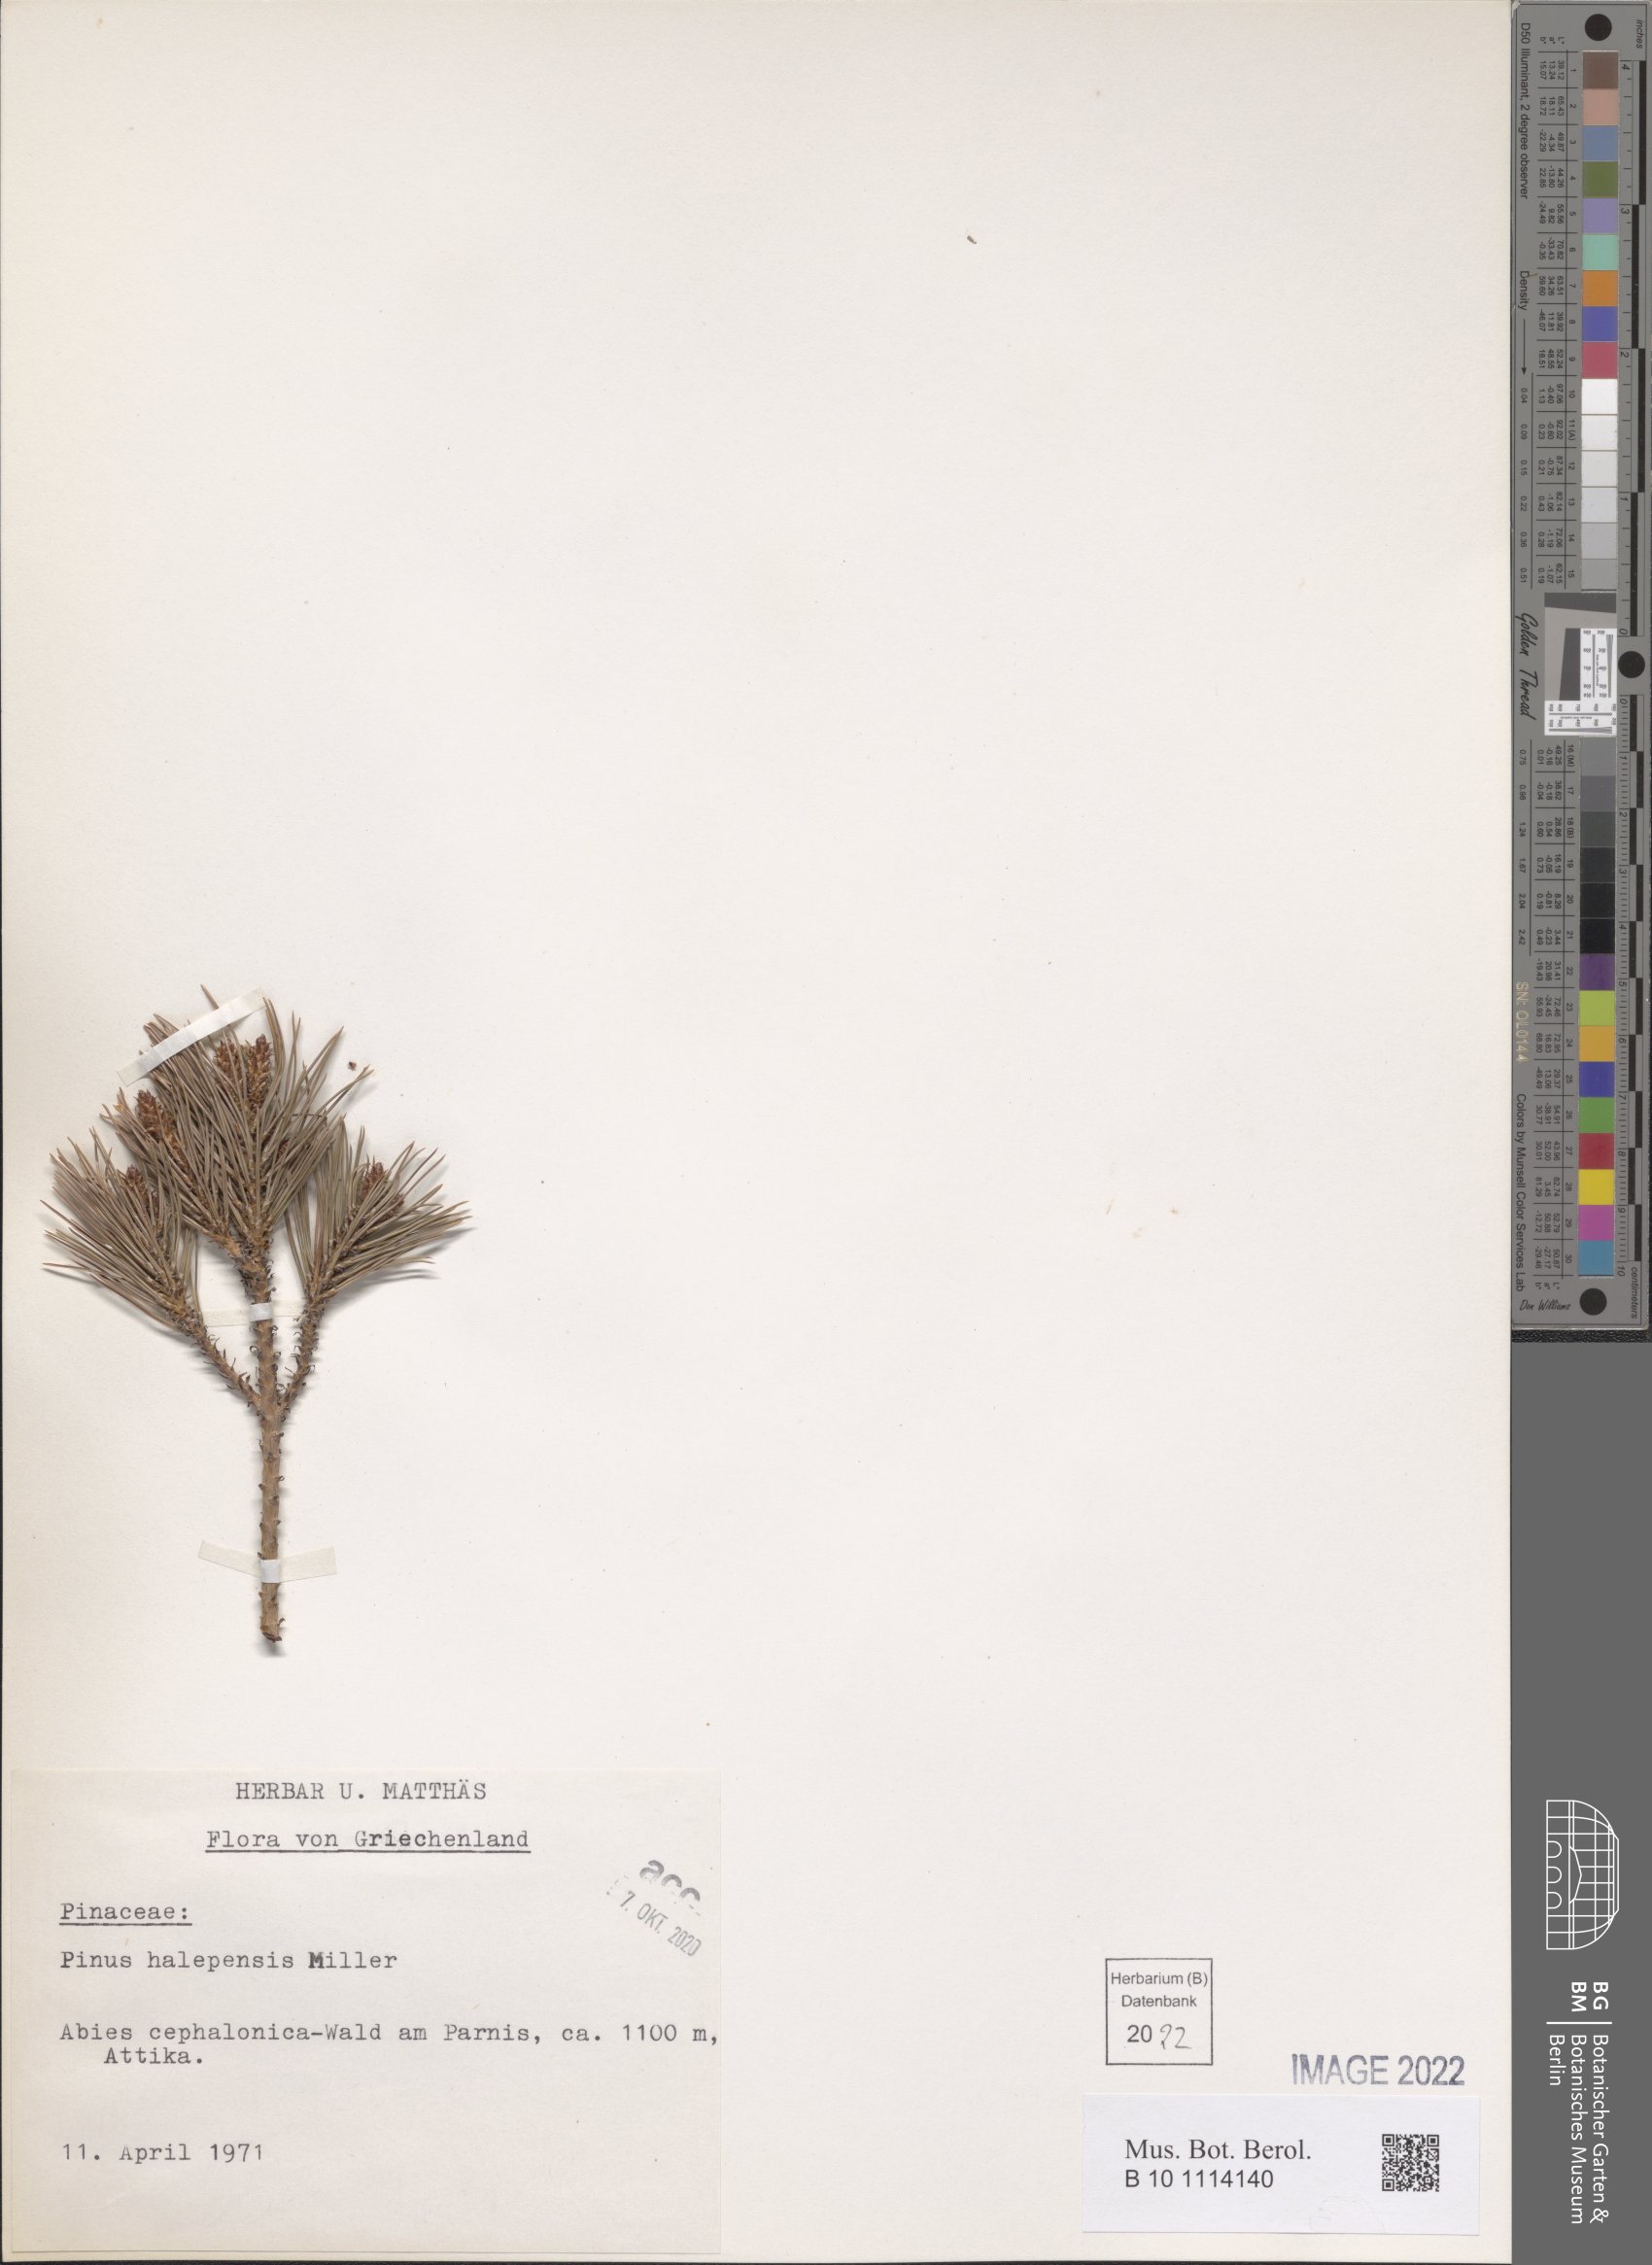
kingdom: Plantae
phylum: Tracheophyta
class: Pinopsida
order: Pinales
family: Pinaceae
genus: Pinus
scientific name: Pinus halepensis
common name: Aleppo pine
